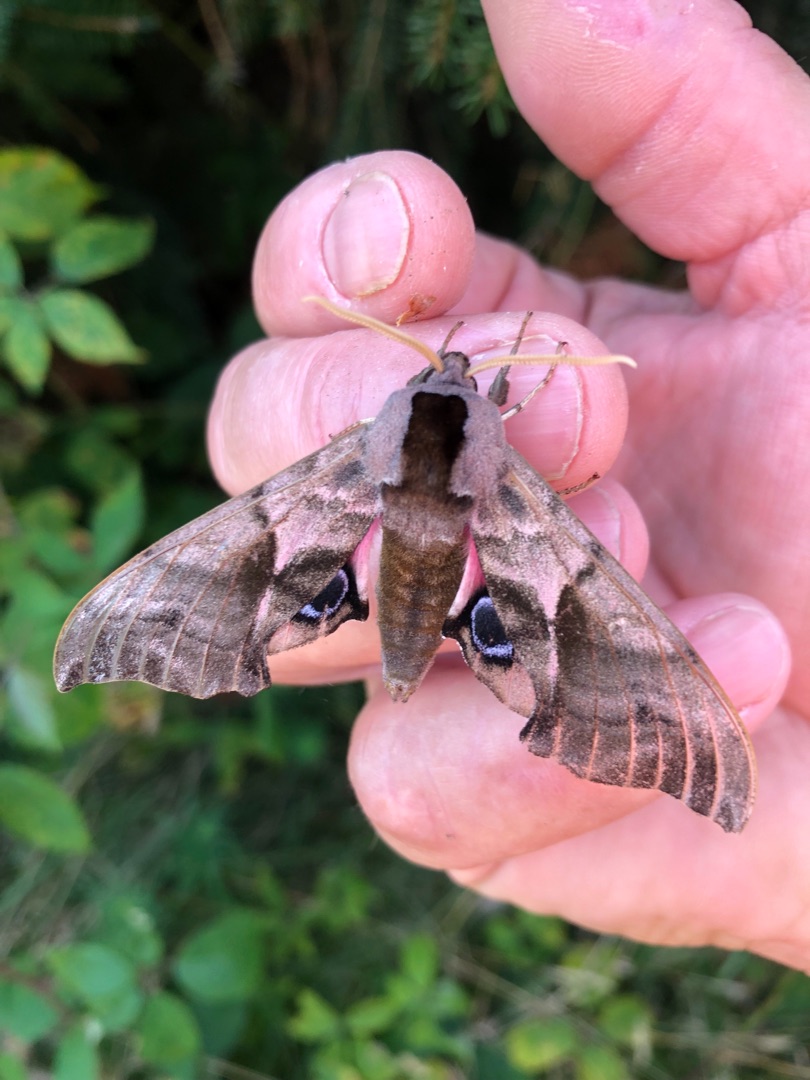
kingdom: Animalia
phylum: Arthropoda
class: Insecta
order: Lepidoptera
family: Sphingidae
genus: Smerinthus
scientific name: Smerinthus ocellata
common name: Aftenpåfugleøje
